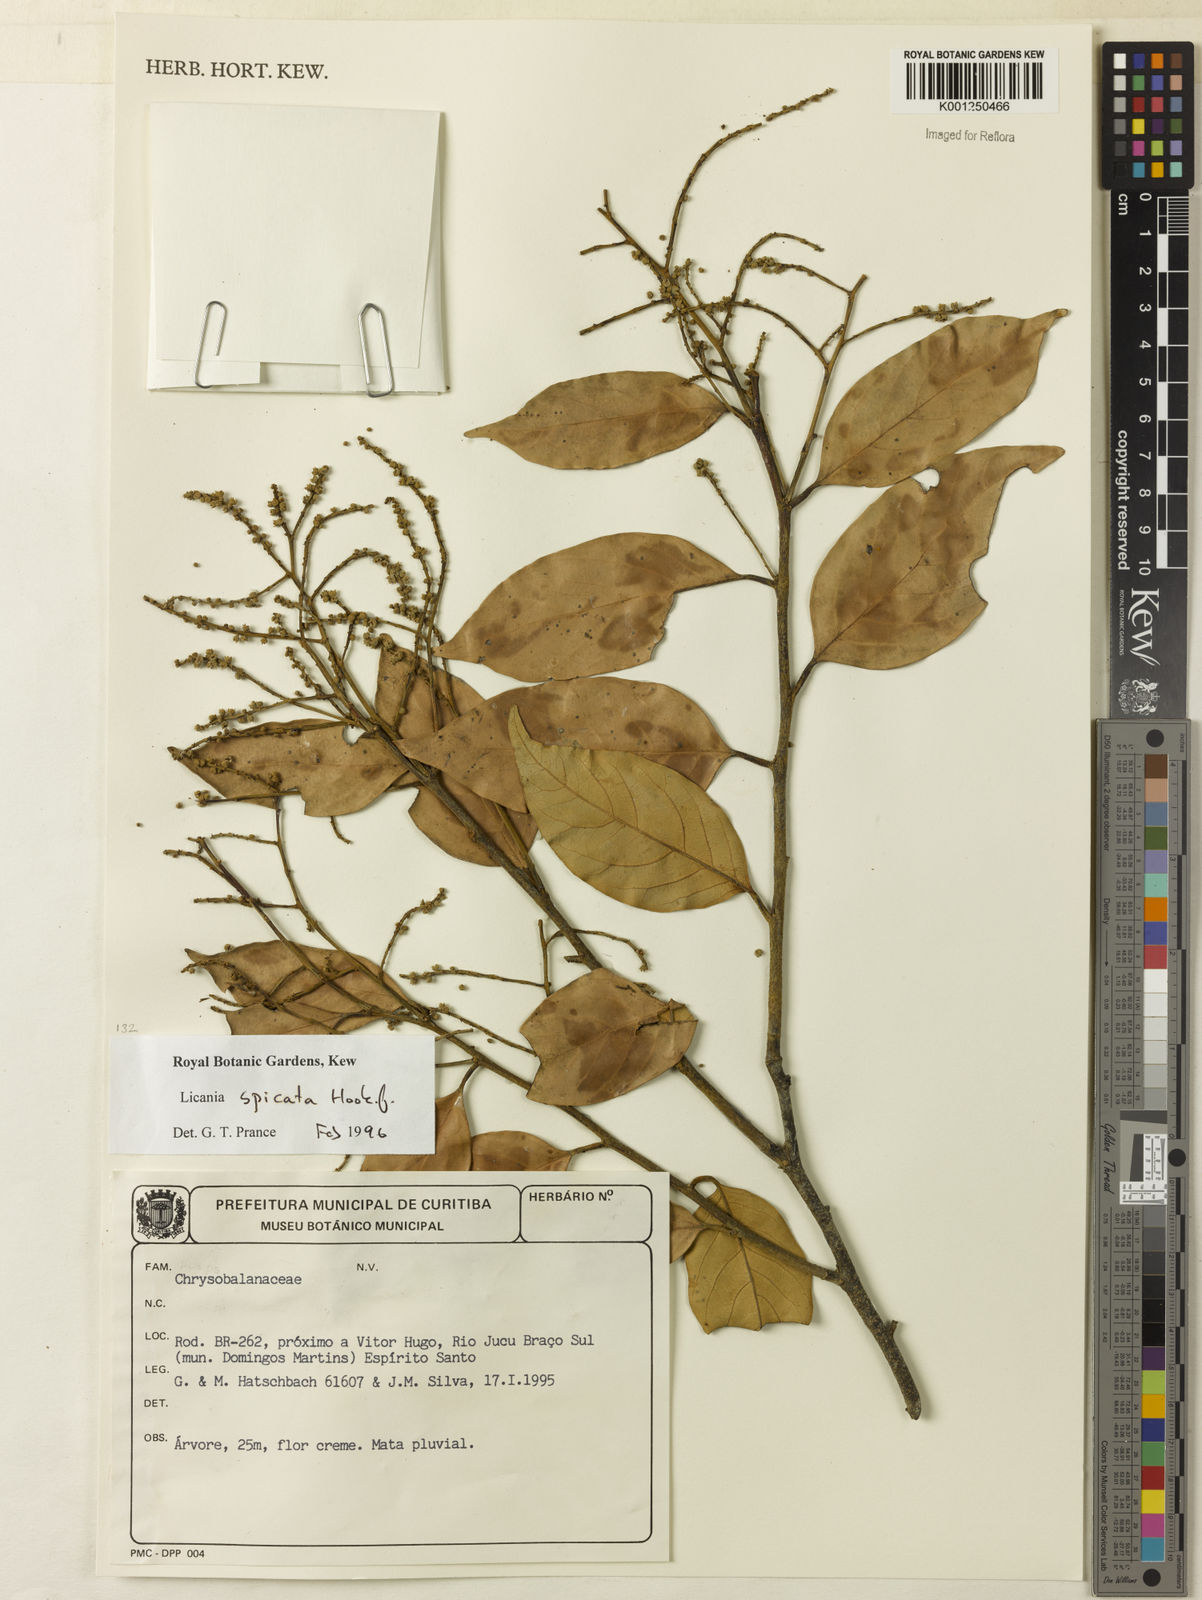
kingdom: Plantae
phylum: Tracheophyta
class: Magnoliopsida
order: Malpighiales
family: Chrysobalanaceae
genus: Licania
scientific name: Licania areolata
